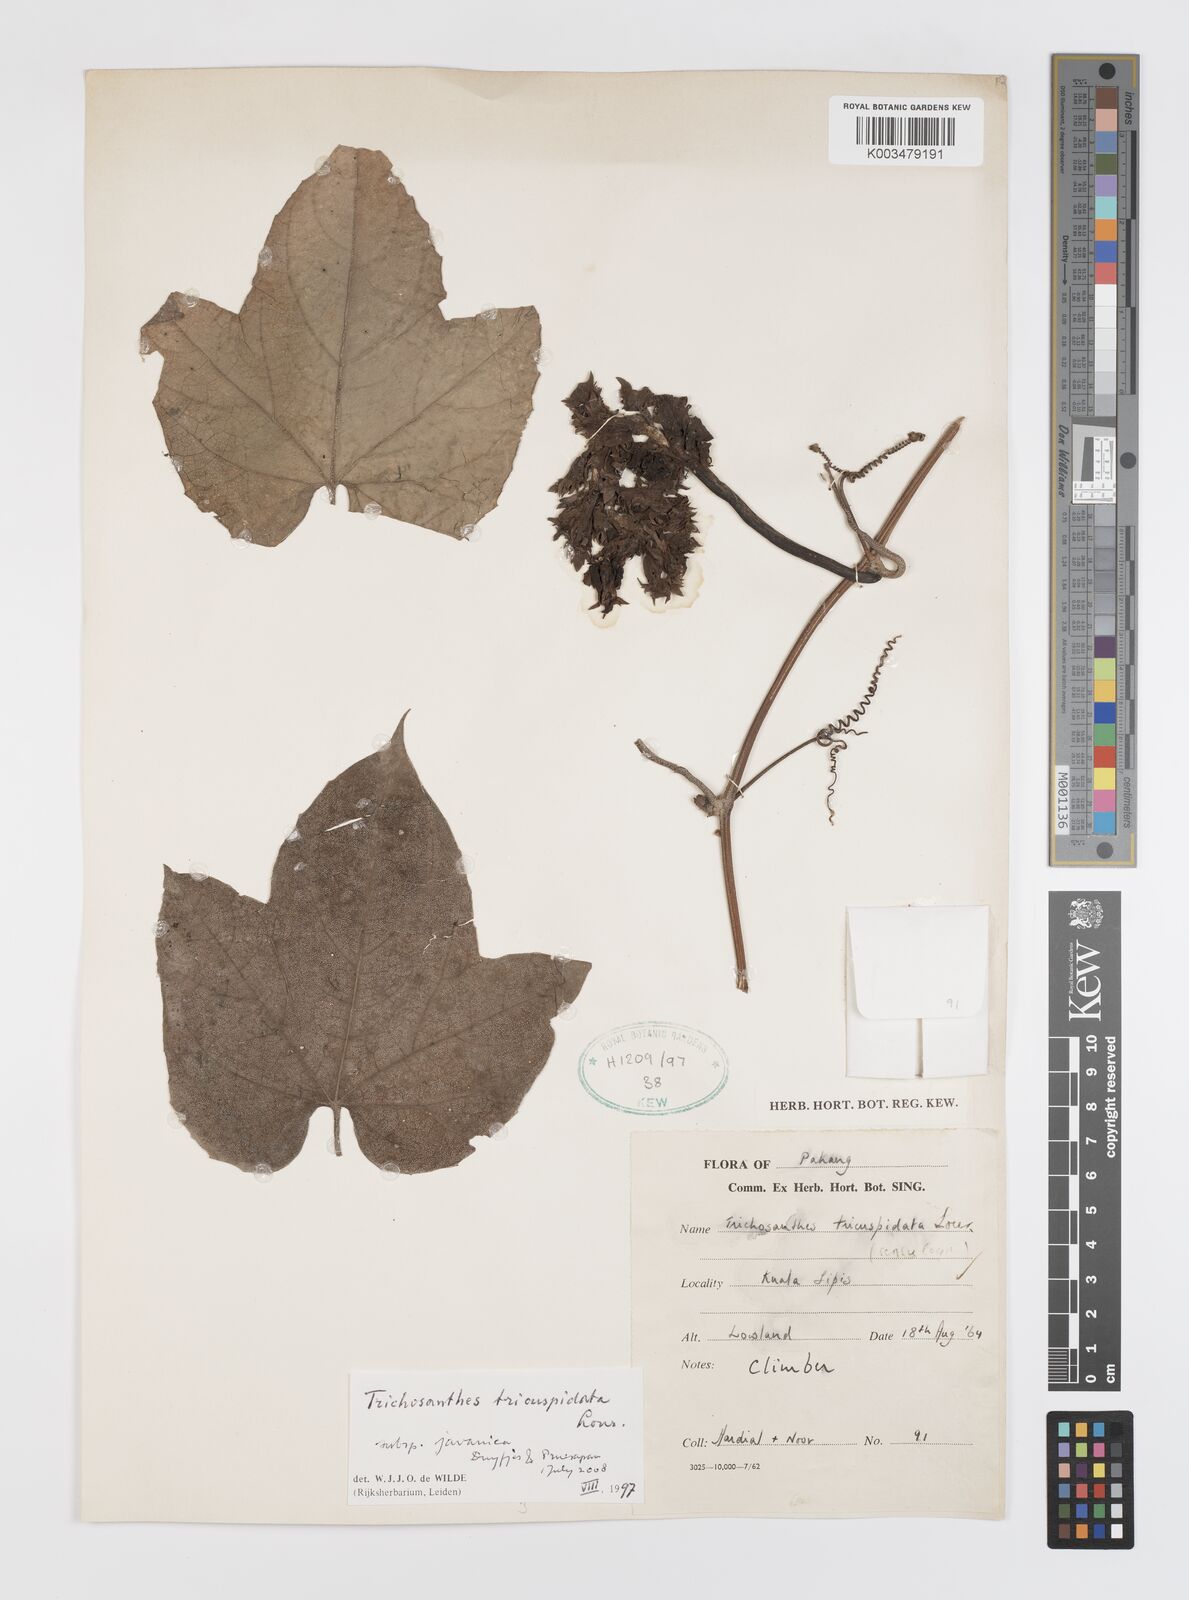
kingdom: Plantae
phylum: Tracheophyta
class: Magnoliopsida
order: Cucurbitales
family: Cucurbitaceae
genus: Trichosanthes
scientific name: Trichosanthes tricuspidata
